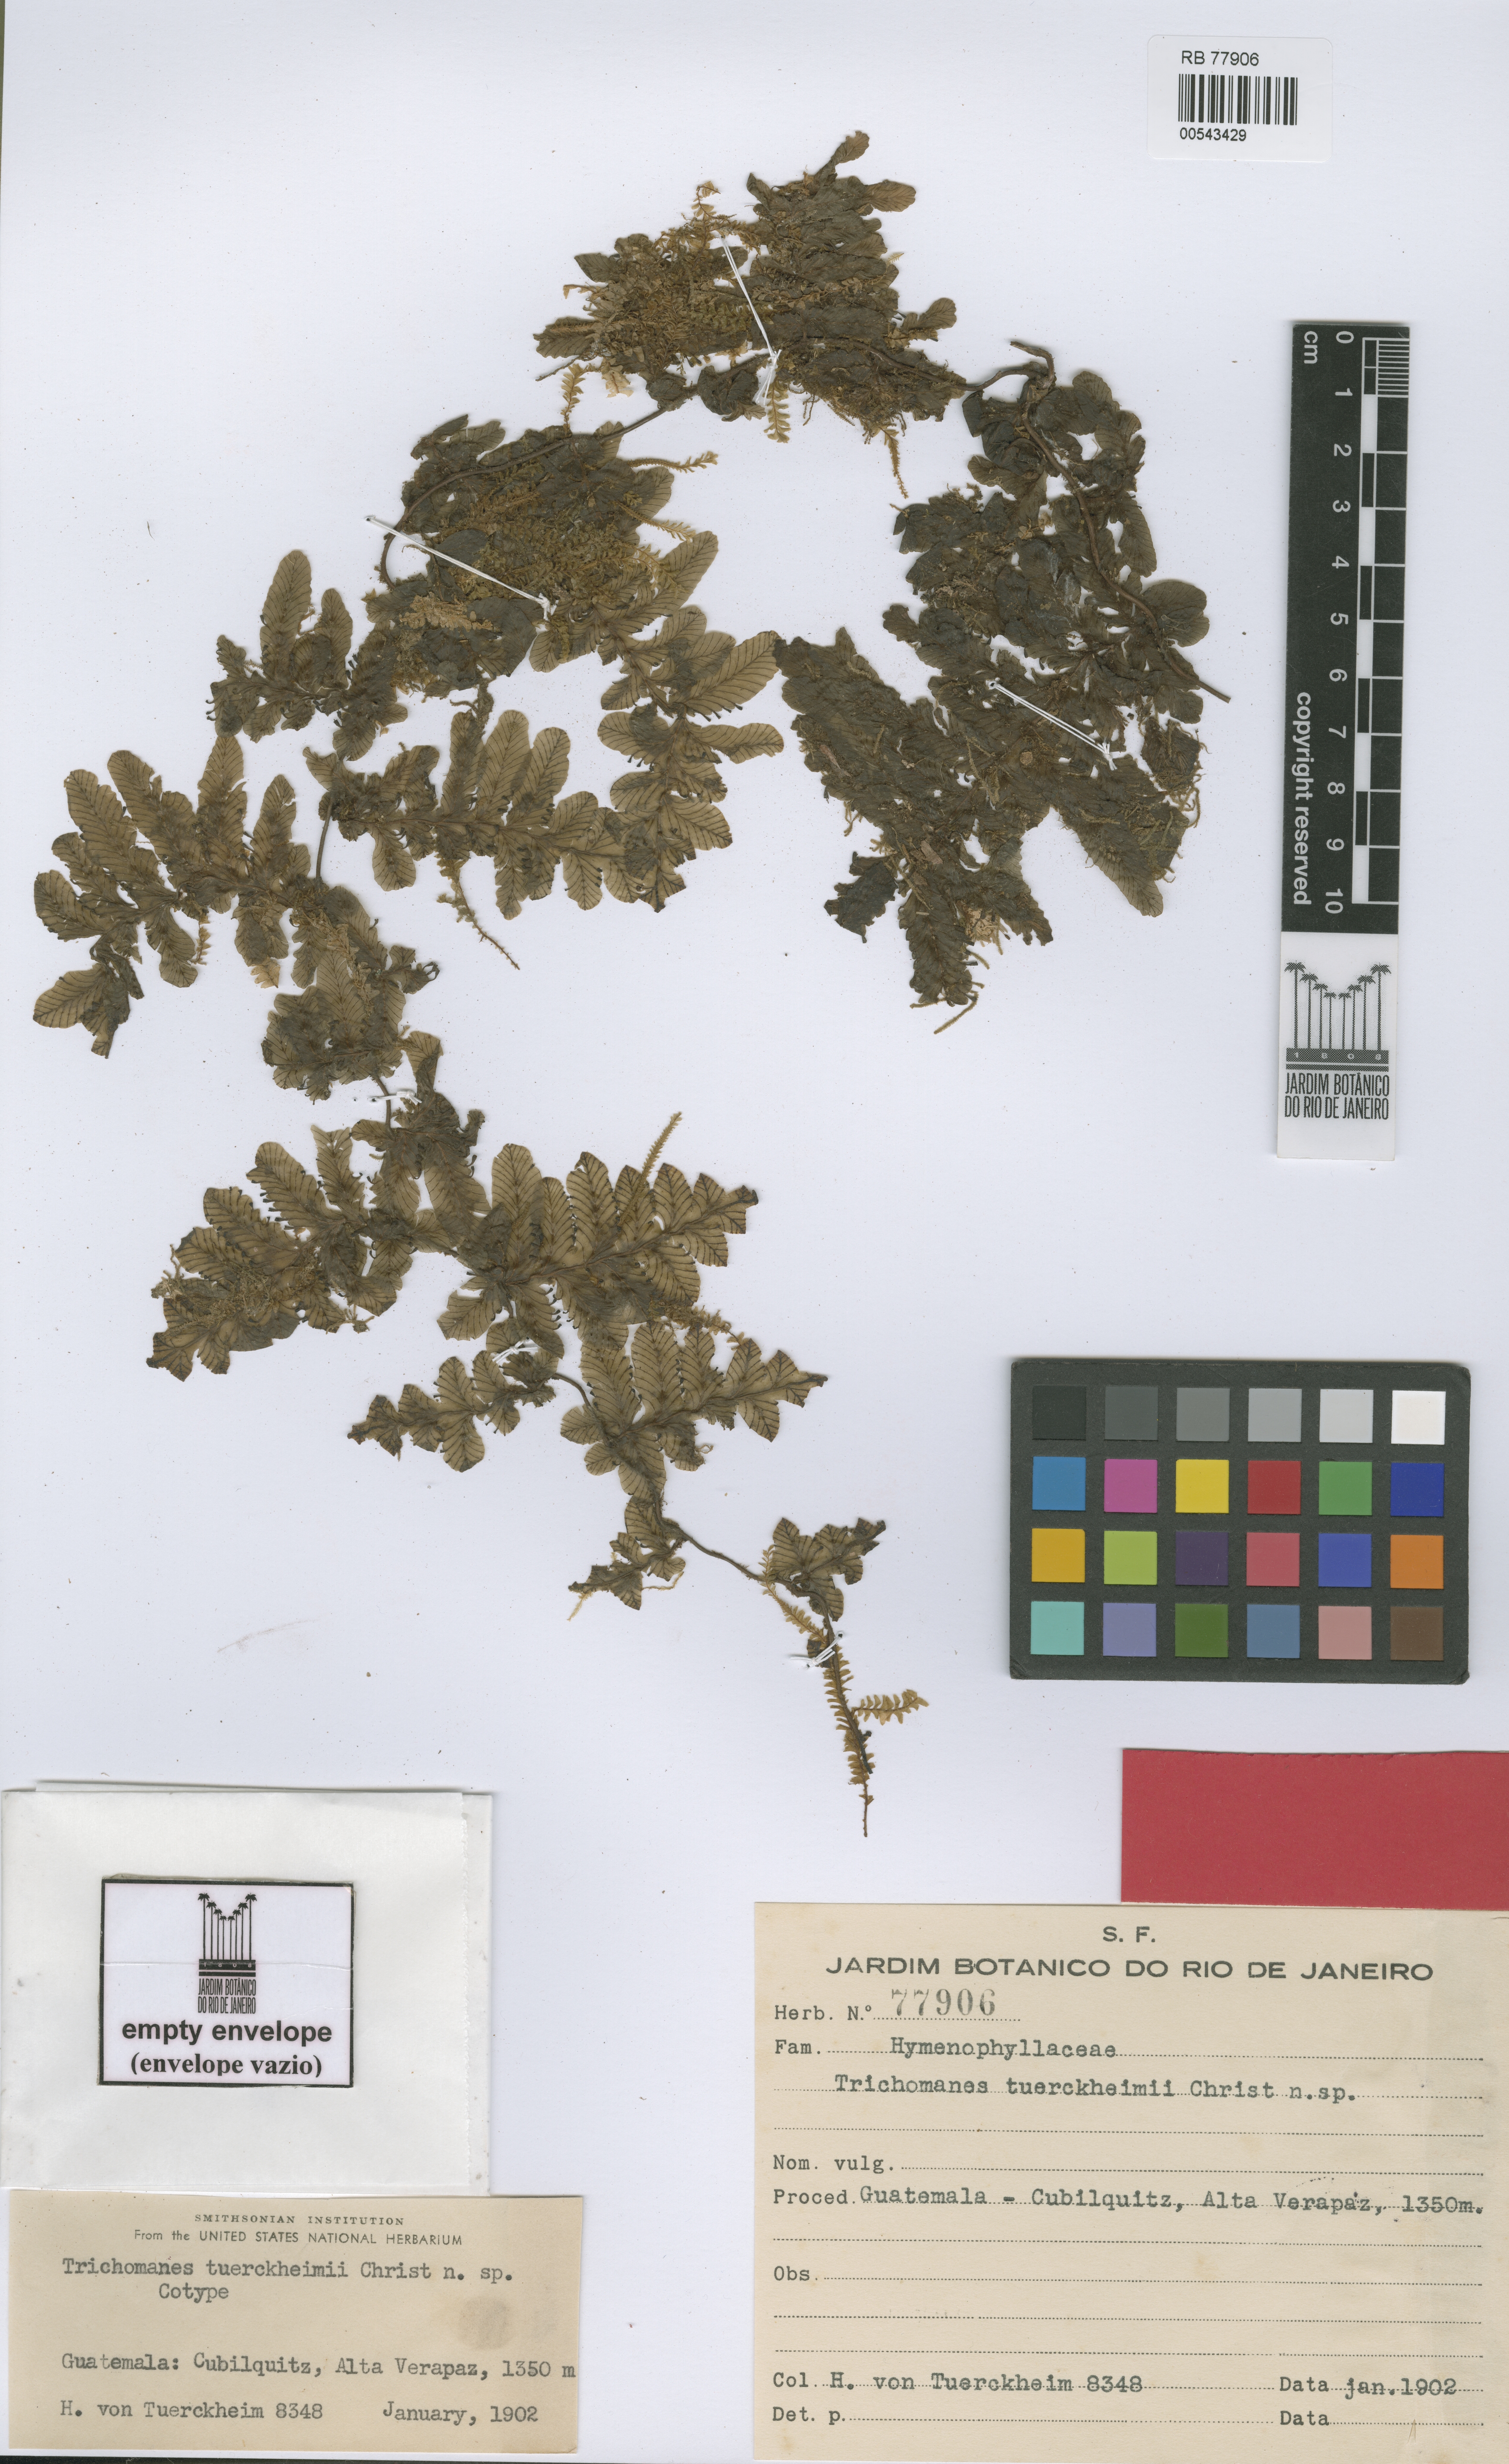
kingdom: Plantae
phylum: Tracheophyta
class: Polypodiopsida
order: Hymenophyllales
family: Hymenophyllaceae
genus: Trichomanes
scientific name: Trichomanes tuerckheimii
